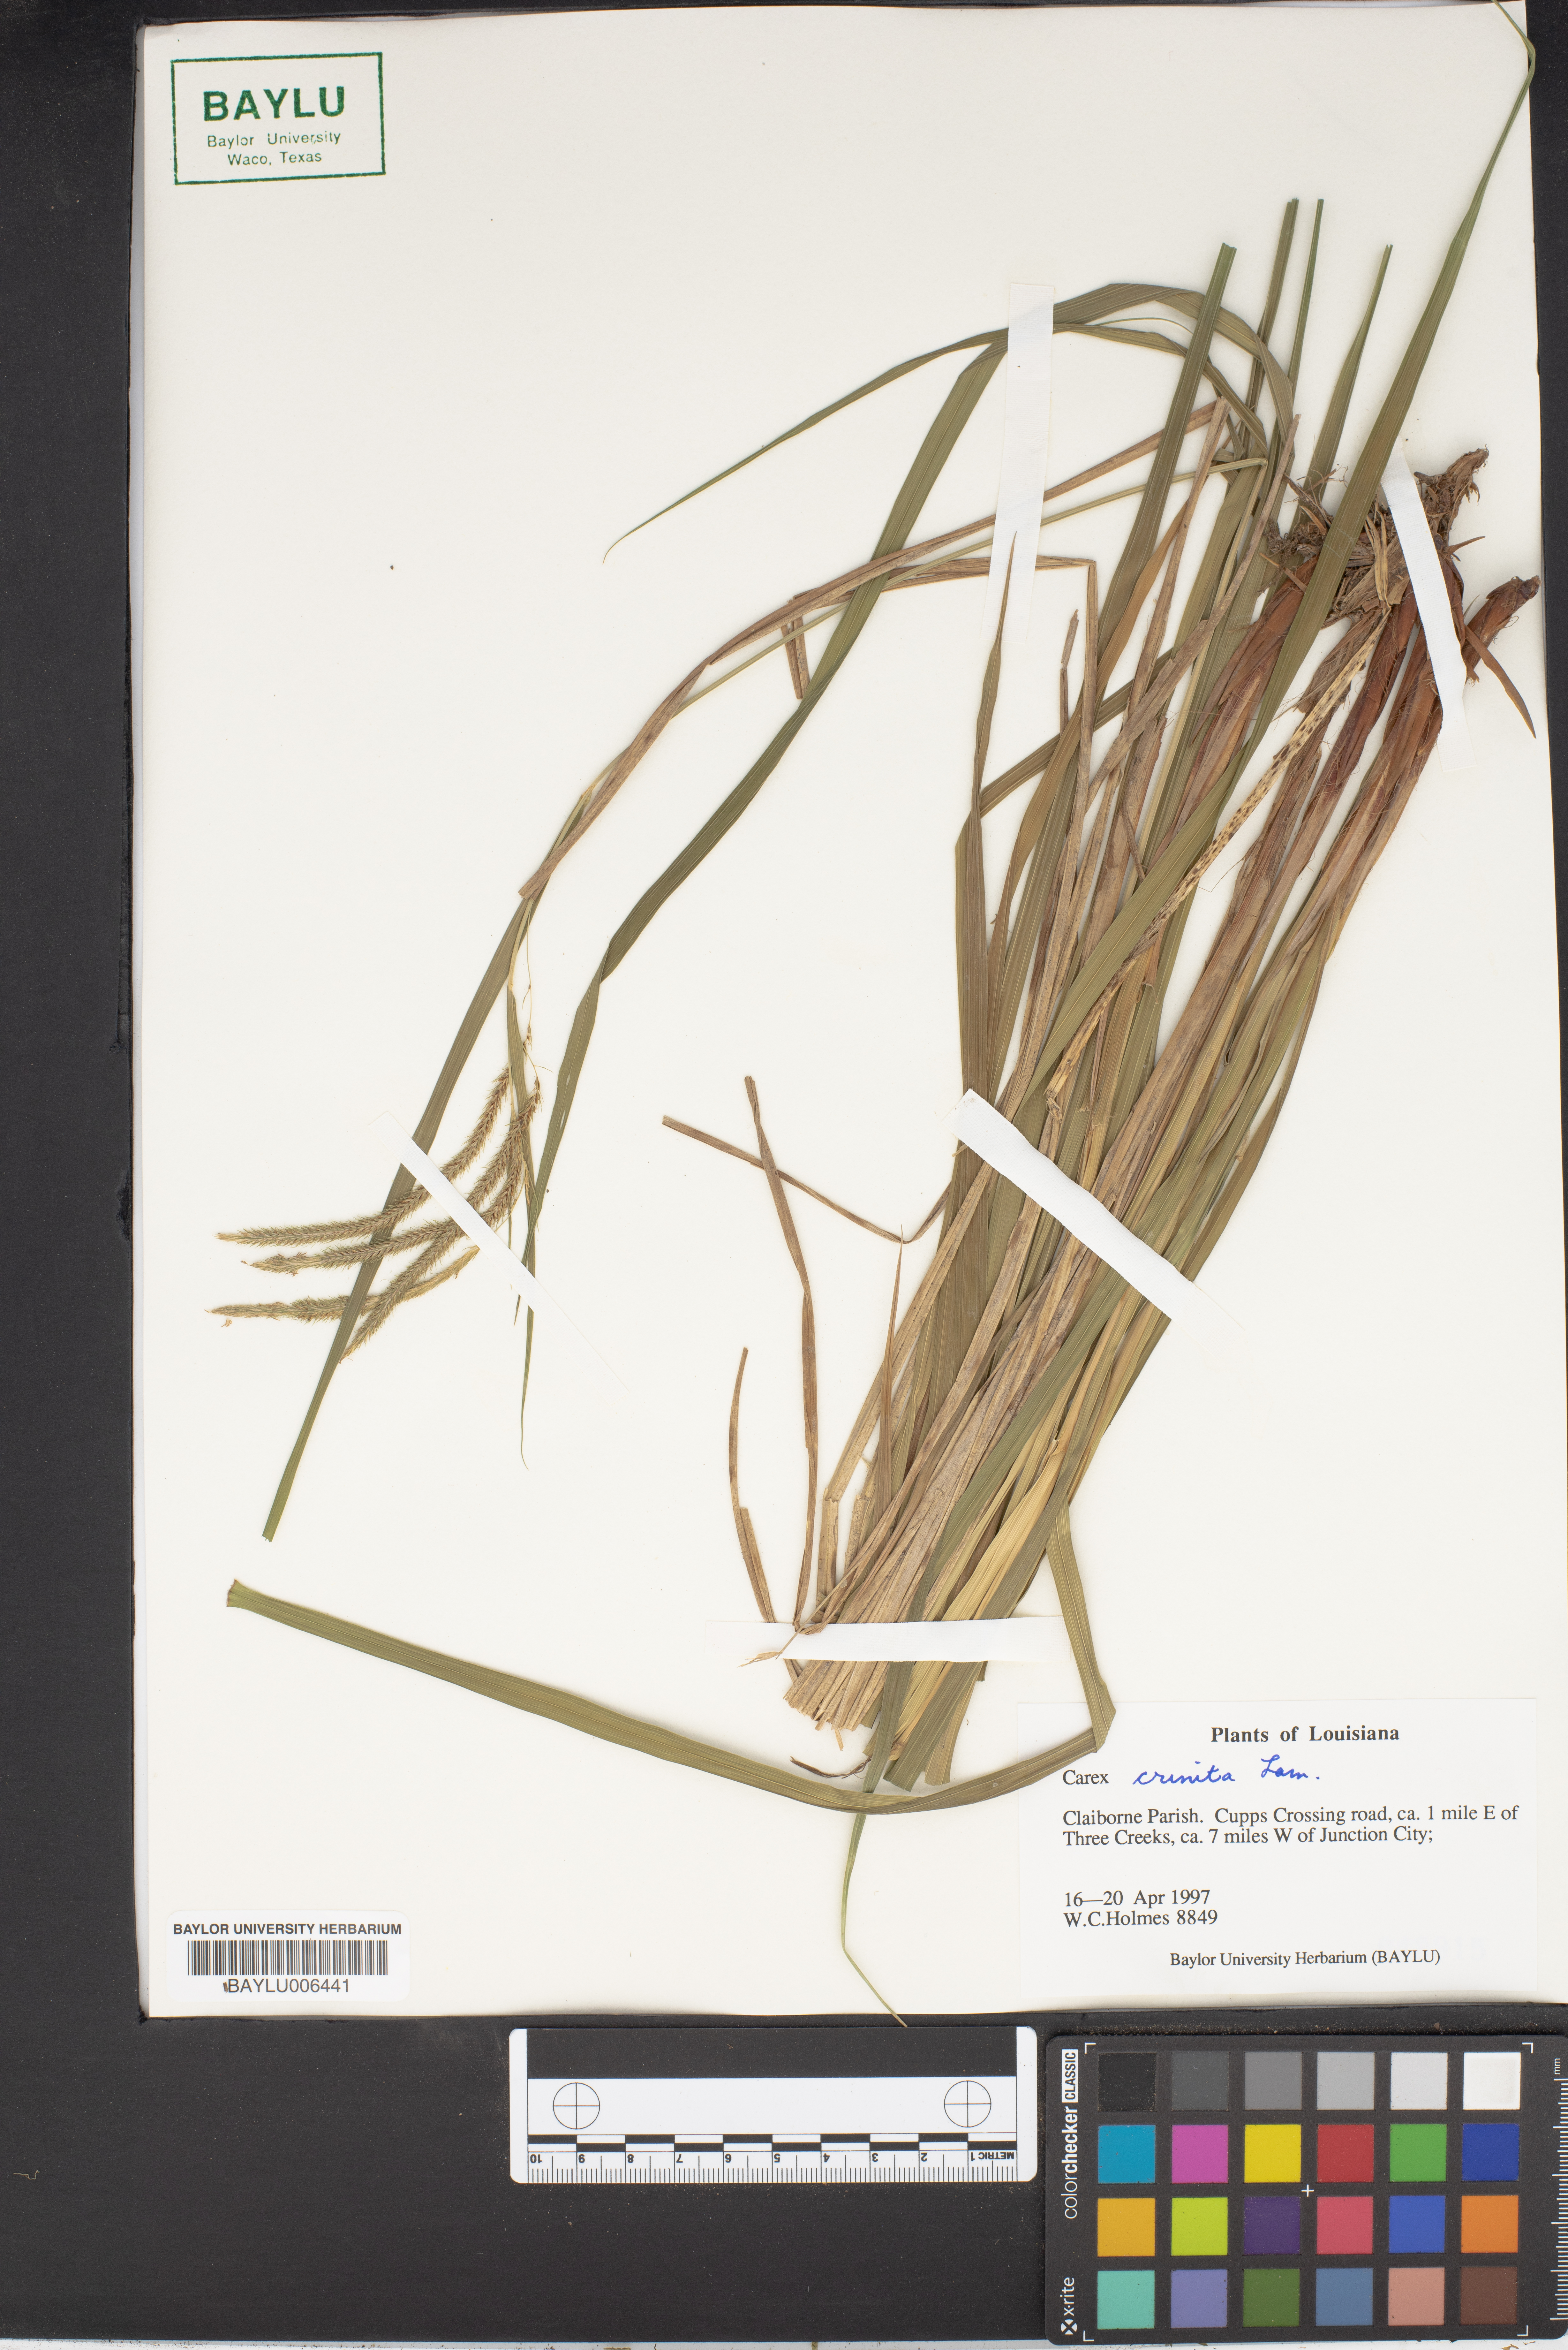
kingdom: Plantae
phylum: Tracheophyta
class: Liliopsida
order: Poales
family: Cyperaceae
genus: Carex
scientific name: Carex crinita
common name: Fringed sedge
